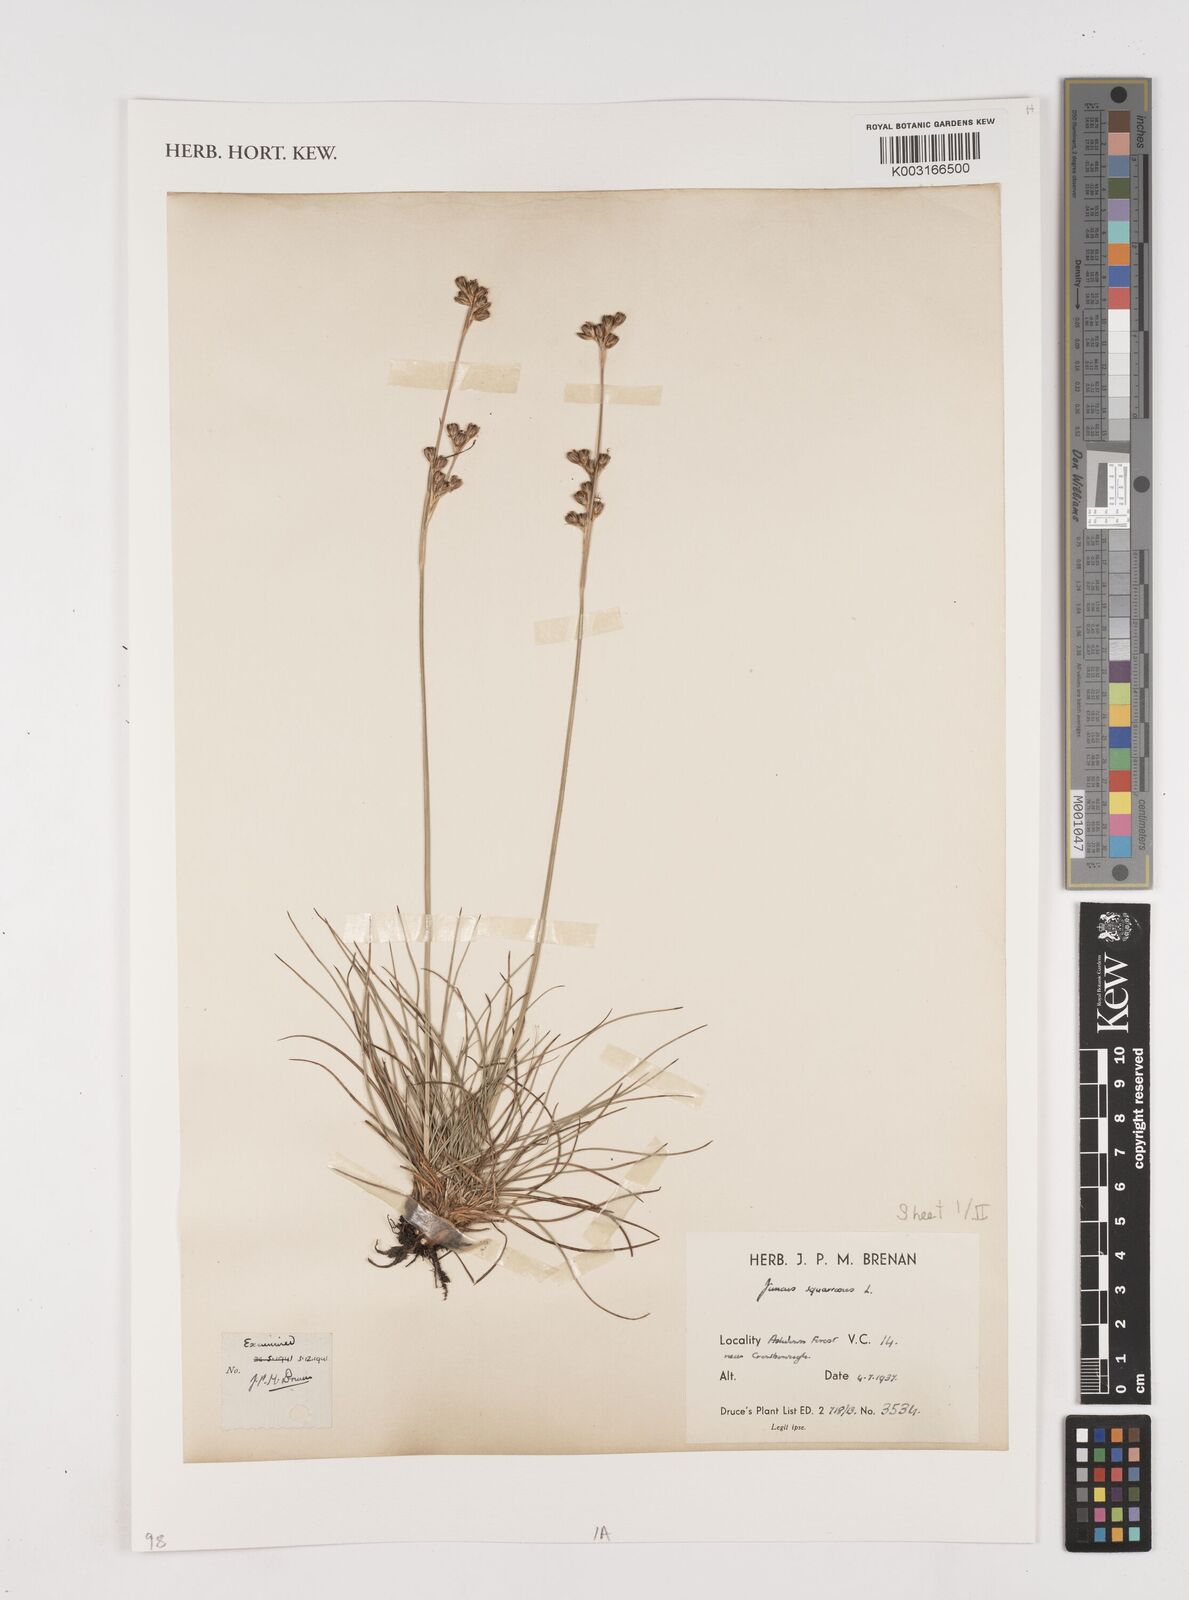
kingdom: Plantae
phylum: Tracheophyta
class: Liliopsida
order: Poales
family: Juncaceae
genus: Juncus
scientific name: Juncus squarrosus
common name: Heath rush
